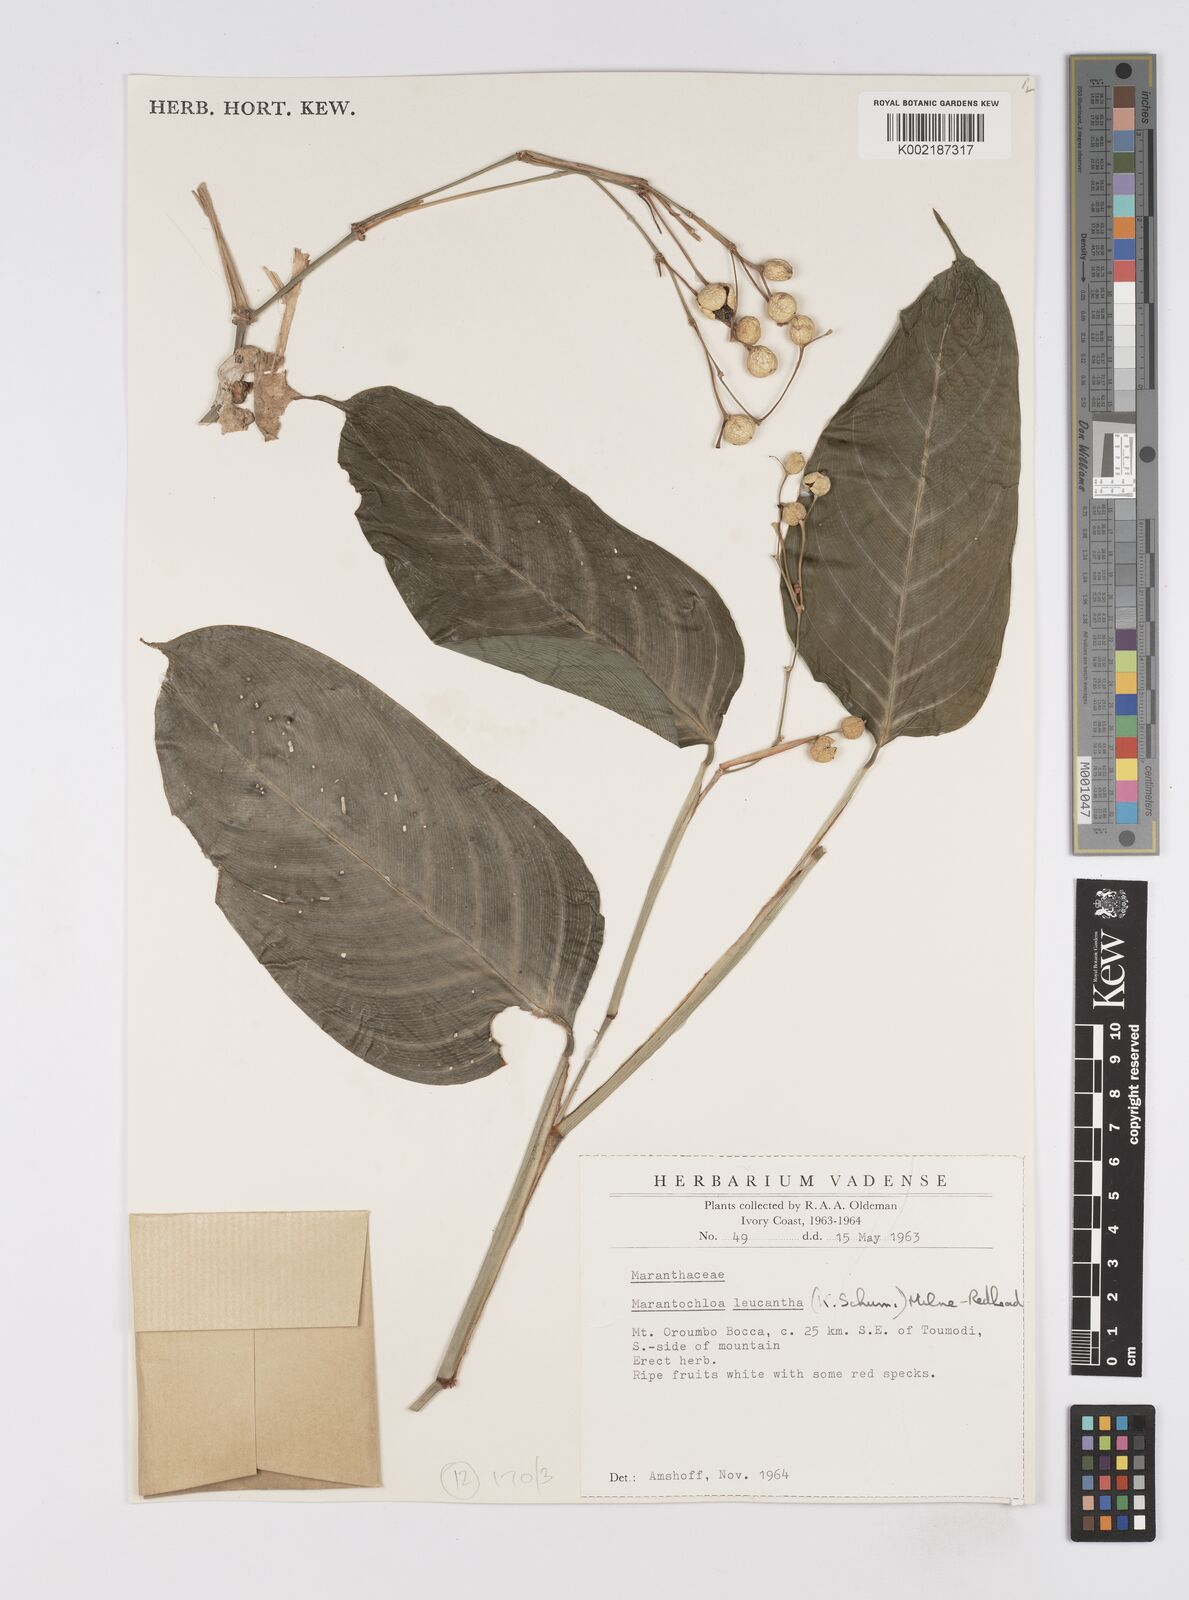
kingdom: Plantae
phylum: Tracheophyta
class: Liliopsida
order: Zingiberales
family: Marantaceae
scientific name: Marantaceae
